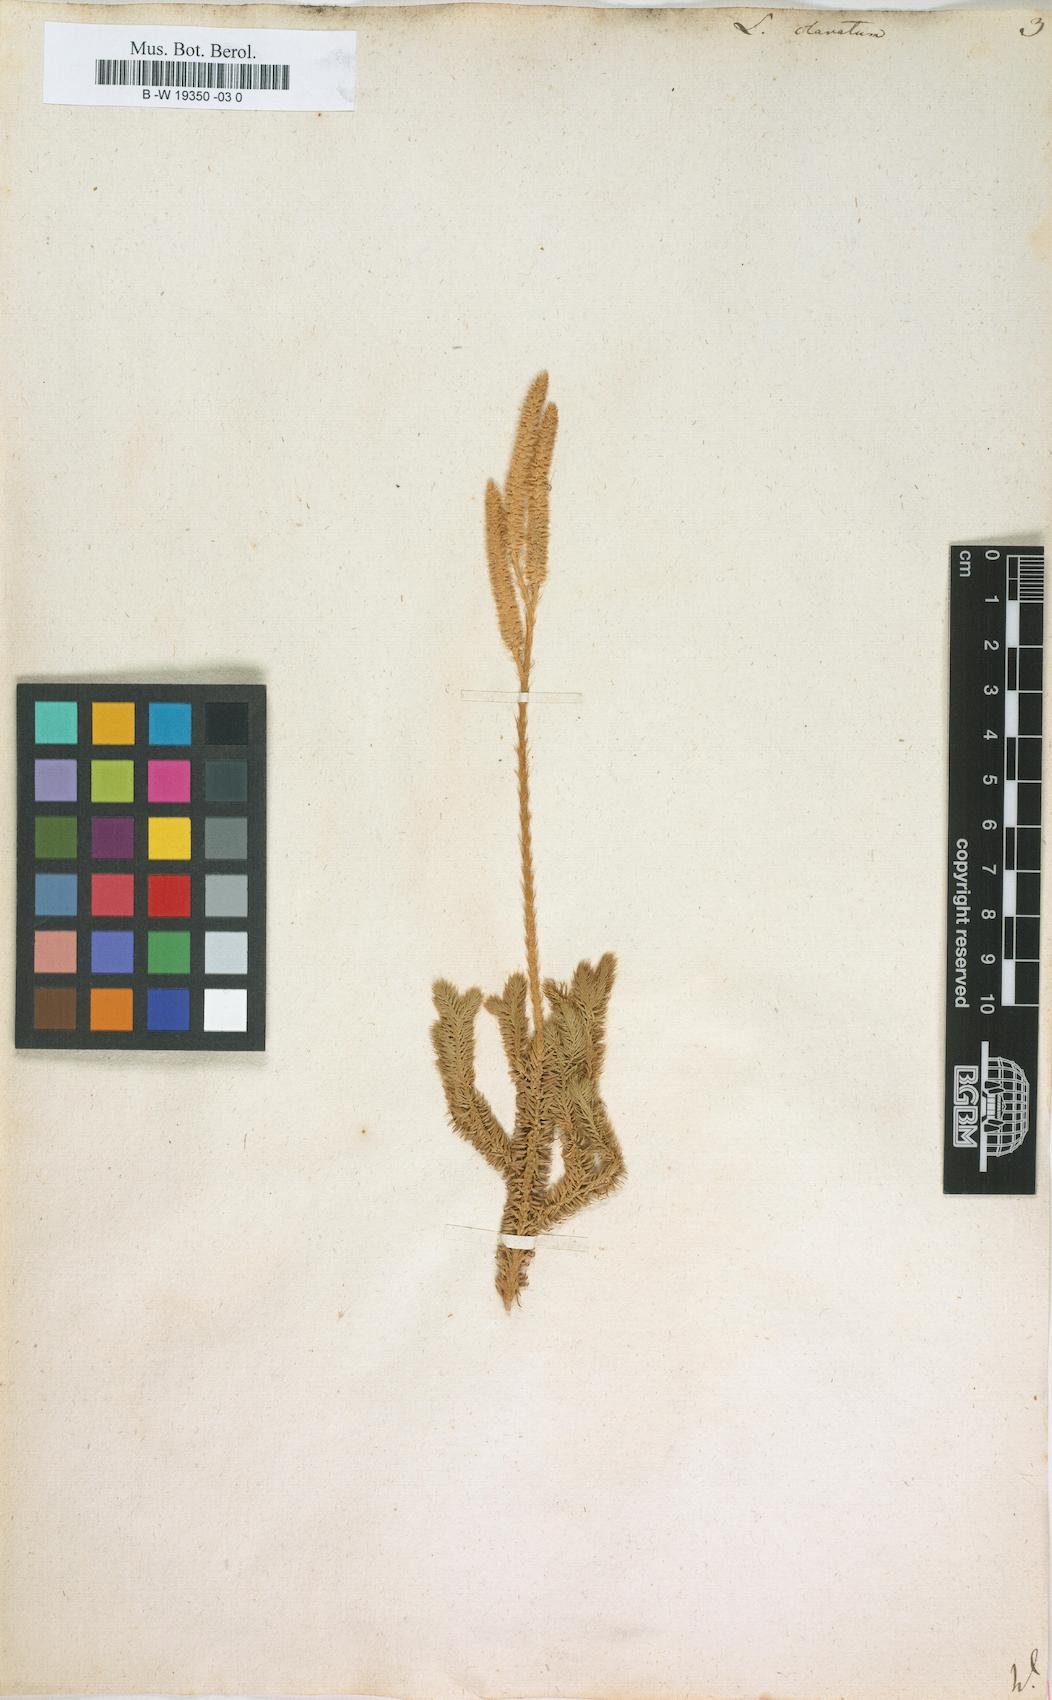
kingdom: Plantae
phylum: Tracheophyta
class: Lycopodiopsida
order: Lycopodiales
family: Lycopodiaceae
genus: Lycopodium
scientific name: Lycopodium clavatum
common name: Stag's-horn clubmoss
